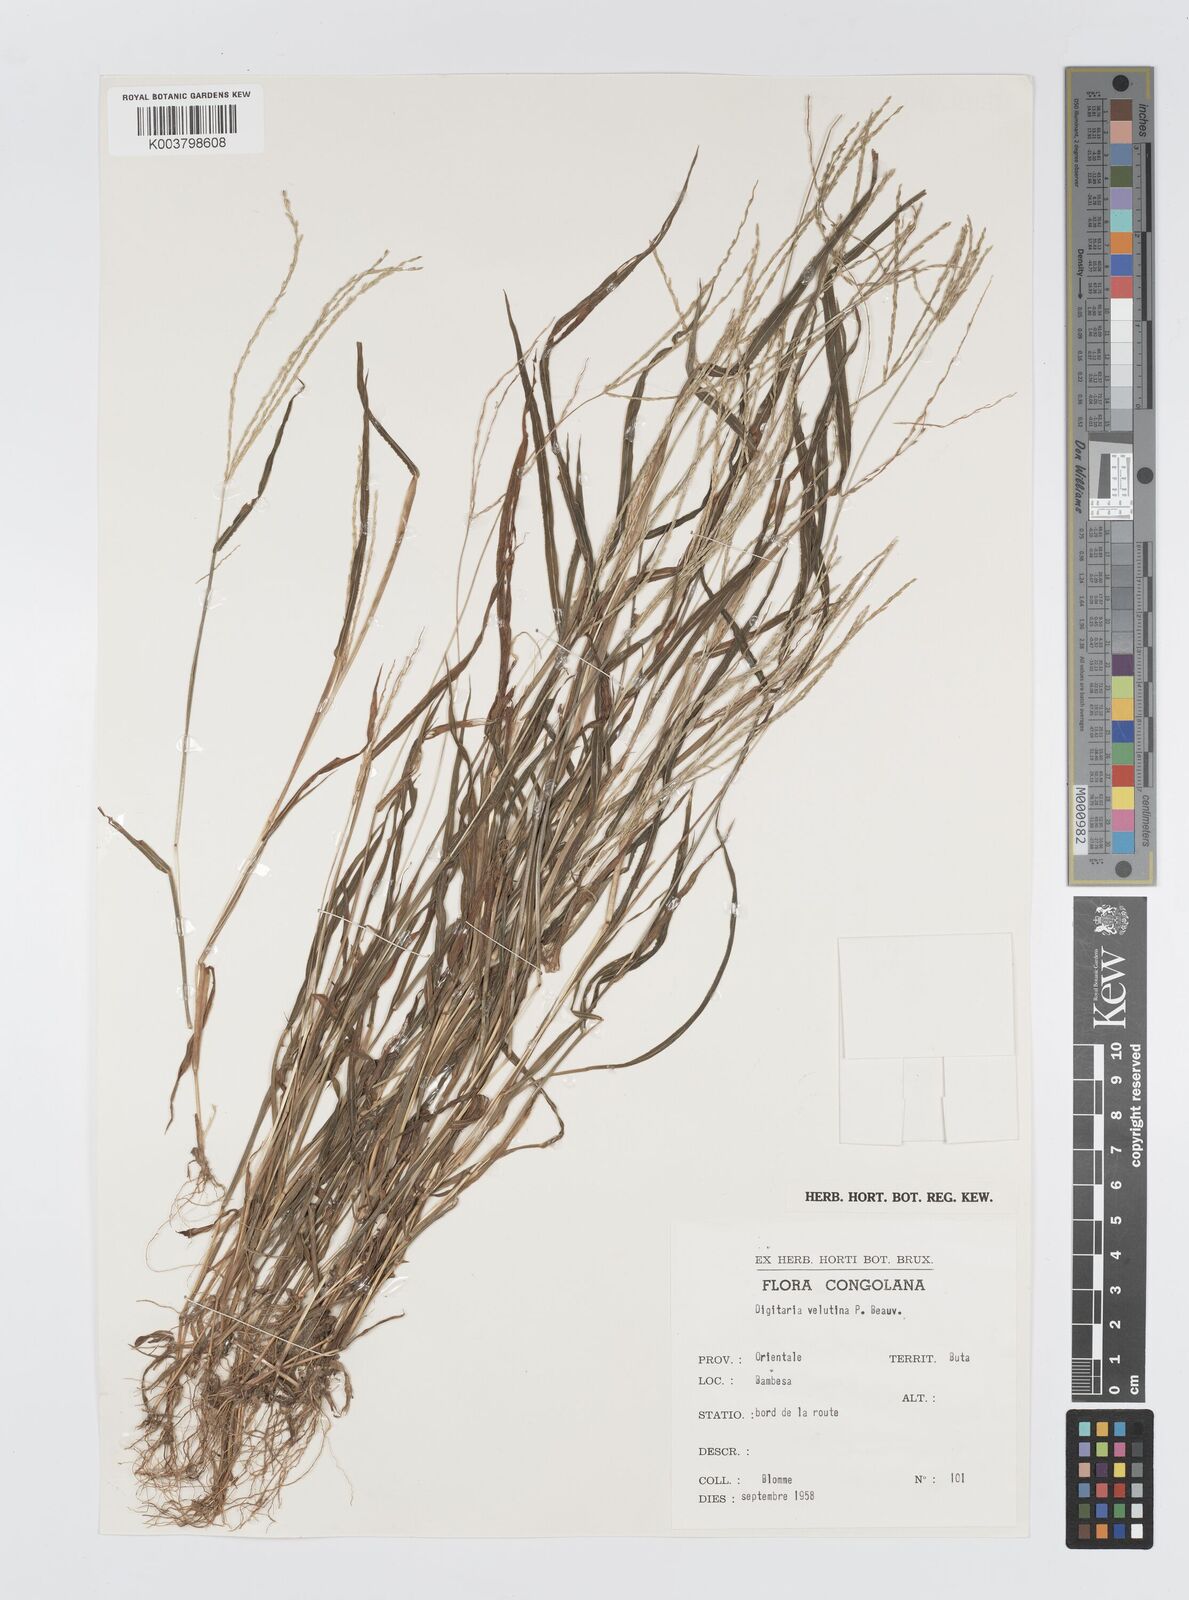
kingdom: Plantae
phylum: Tracheophyta
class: Liliopsida
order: Poales
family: Poaceae
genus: Digitaria
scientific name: Digitaria velutina
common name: Long-plume finger grass
